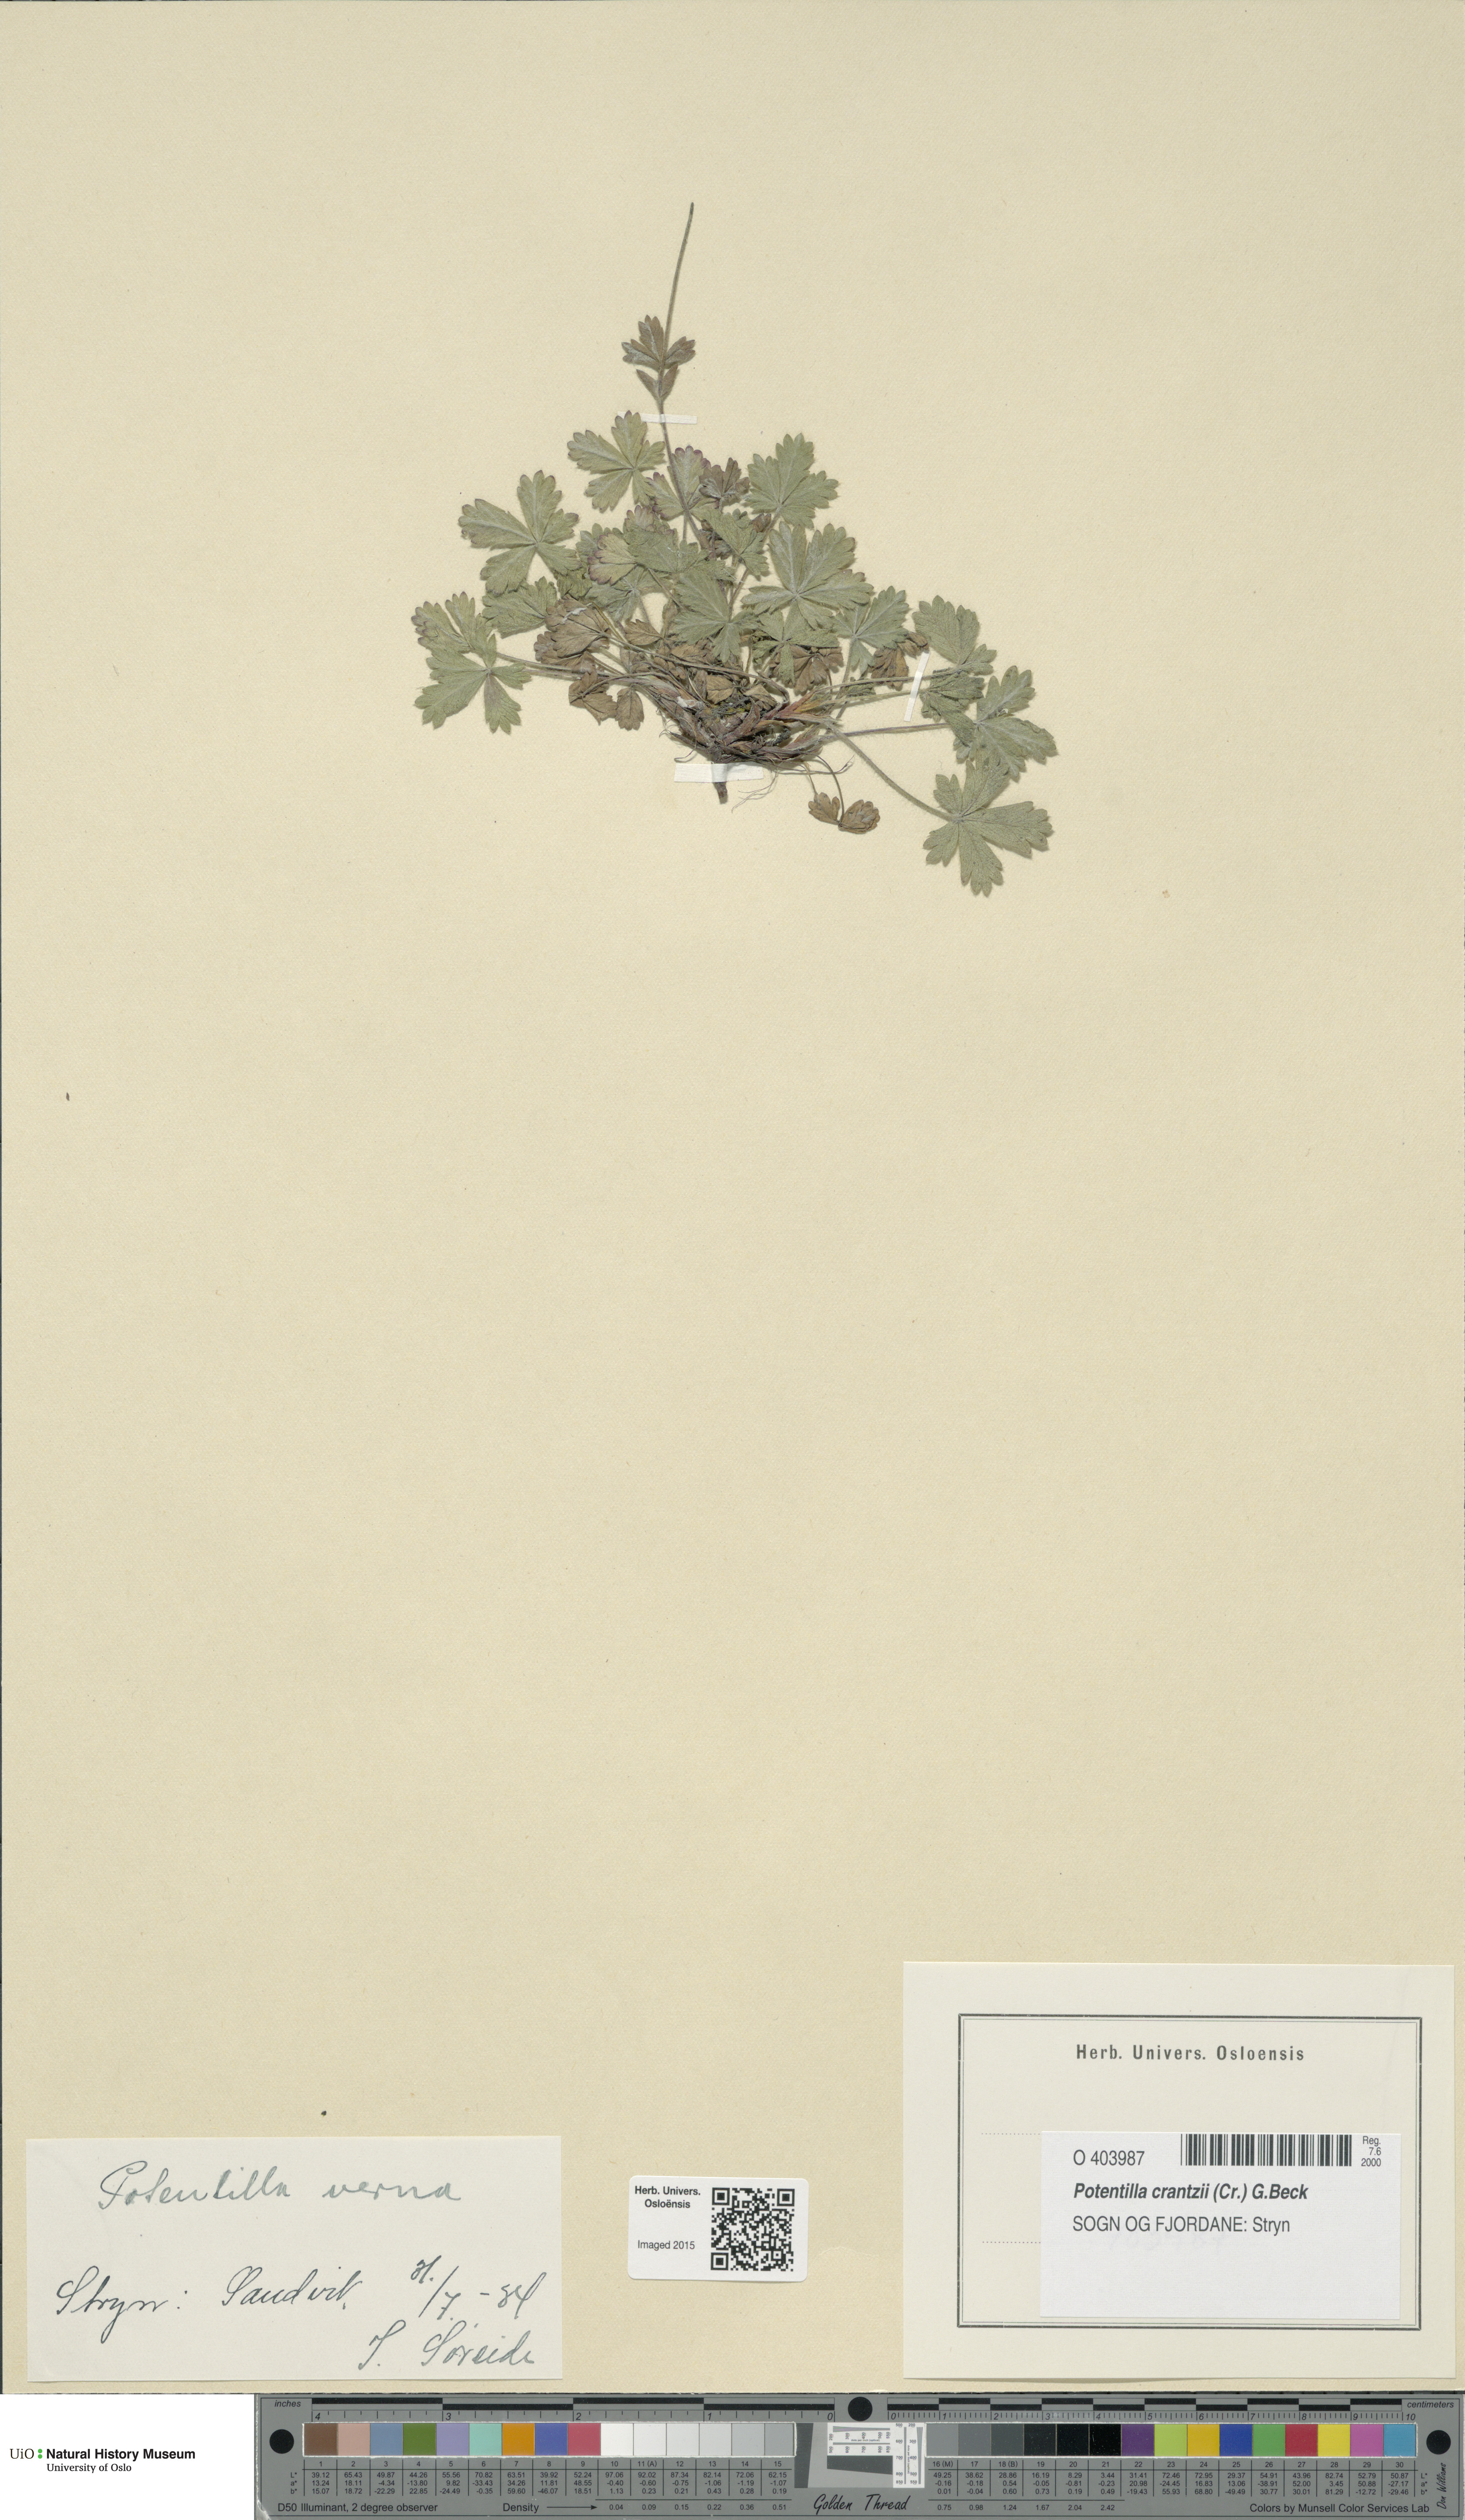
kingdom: Plantae
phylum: Tracheophyta
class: Magnoliopsida
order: Rosales
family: Rosaceae
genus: Potentilla
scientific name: Potentilla verna
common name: Spring cinquefoil
